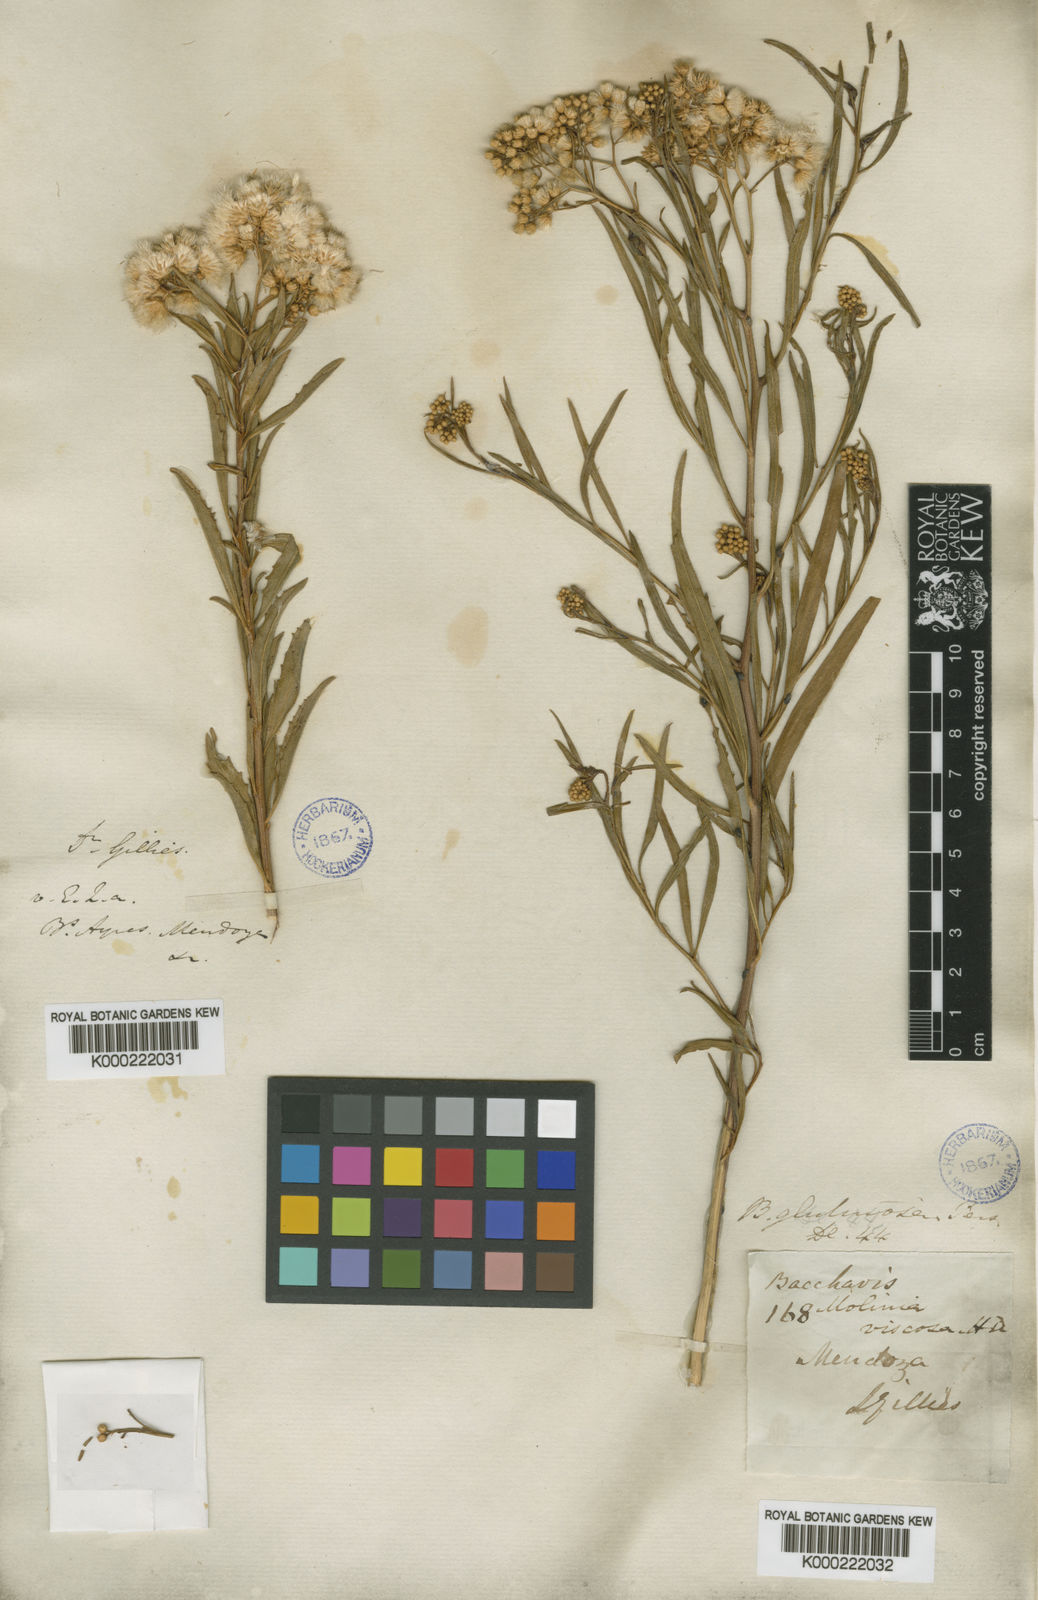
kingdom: Plantae
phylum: Tracheophyta
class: Magnoliopsida
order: Asterales
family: Asteraceae
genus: Baccharis
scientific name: Baccharis glutinosa
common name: Saltmarsh baccharis
